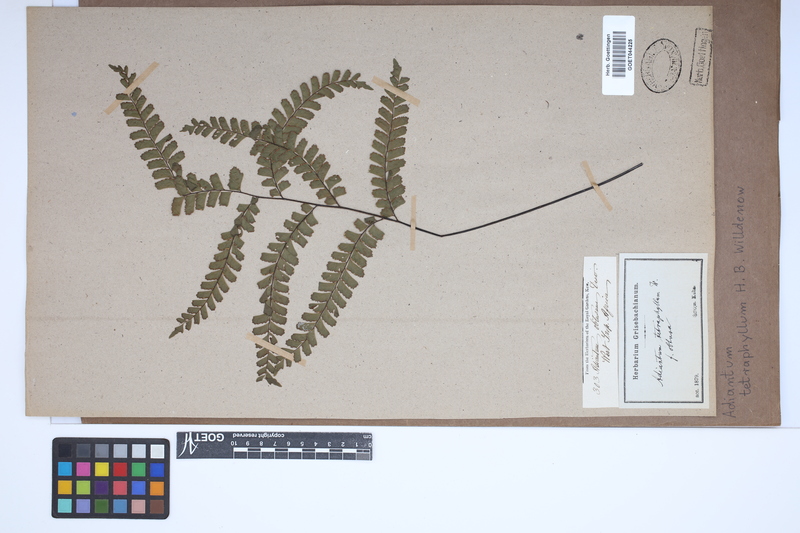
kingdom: Plantae
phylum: Tracheophyta
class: Polypodiopsida
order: Polypodiales
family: Pteridaceae
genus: Adiantum
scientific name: Adiantum tetraphyllum
